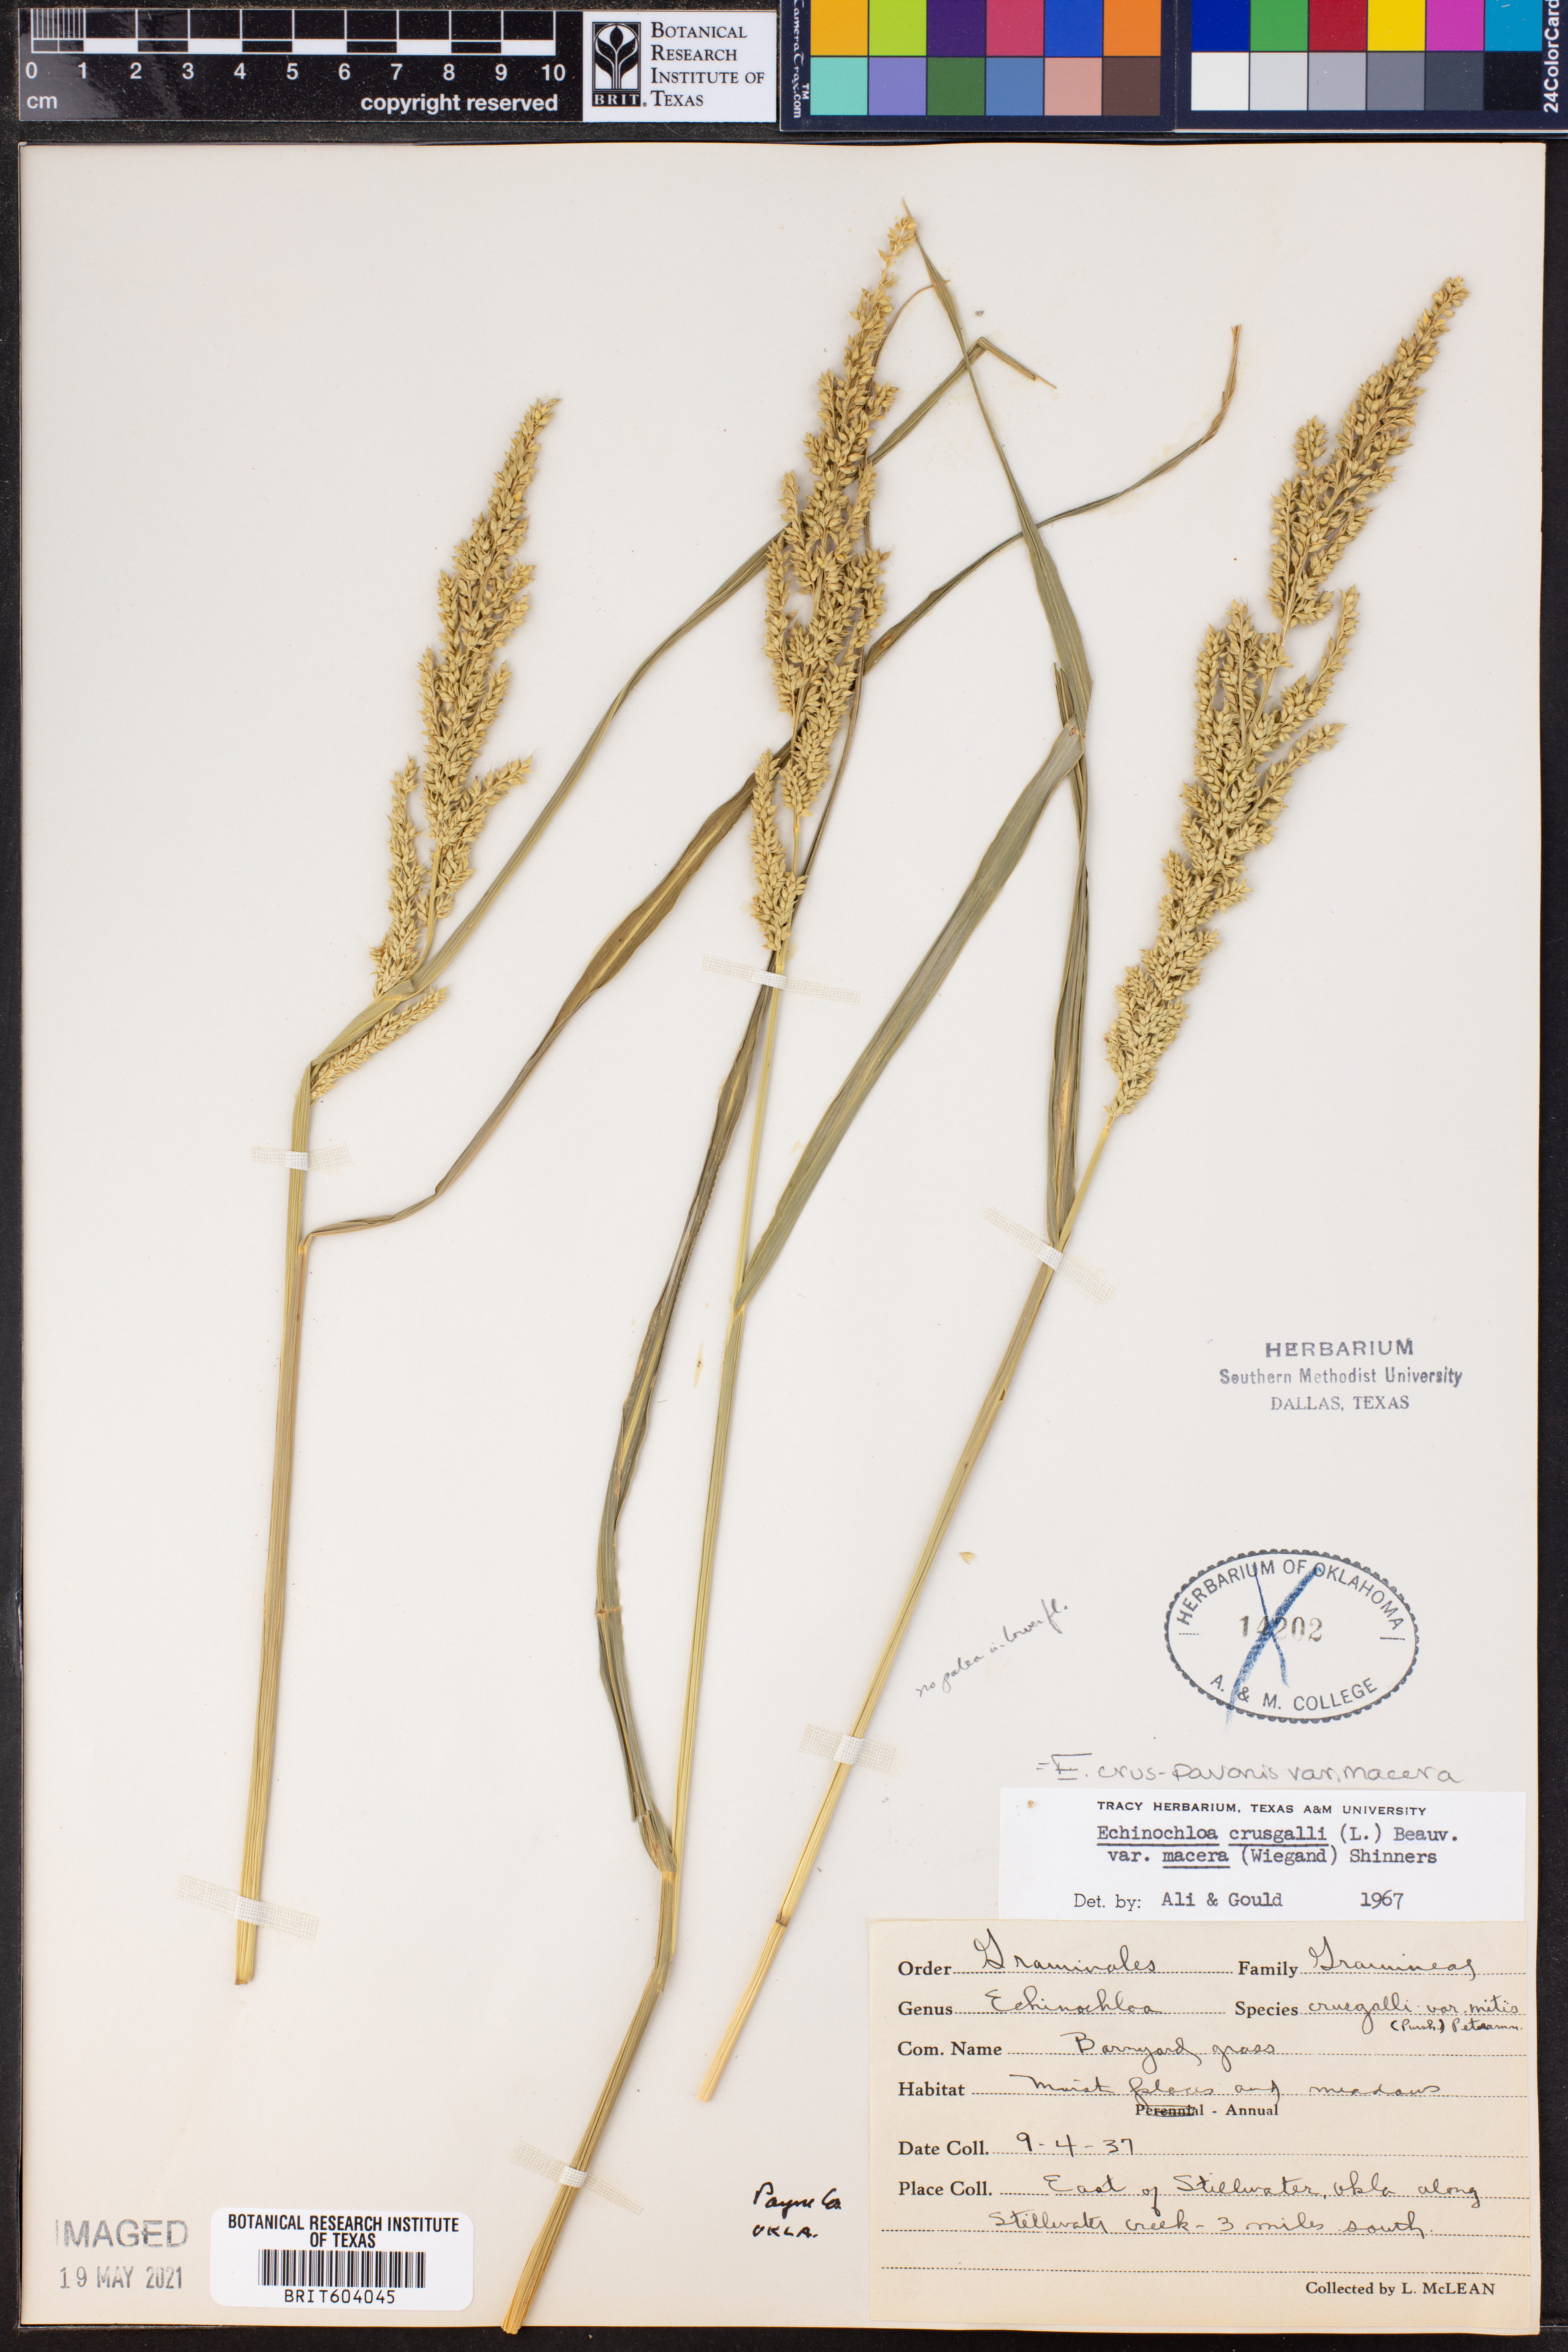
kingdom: Plantae
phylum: Tracheophyta
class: Liliopsida
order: Poales
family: Poaceae
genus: Echinochloa
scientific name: Echinochloa crus-pavonis
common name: Gulf cockspur grass
